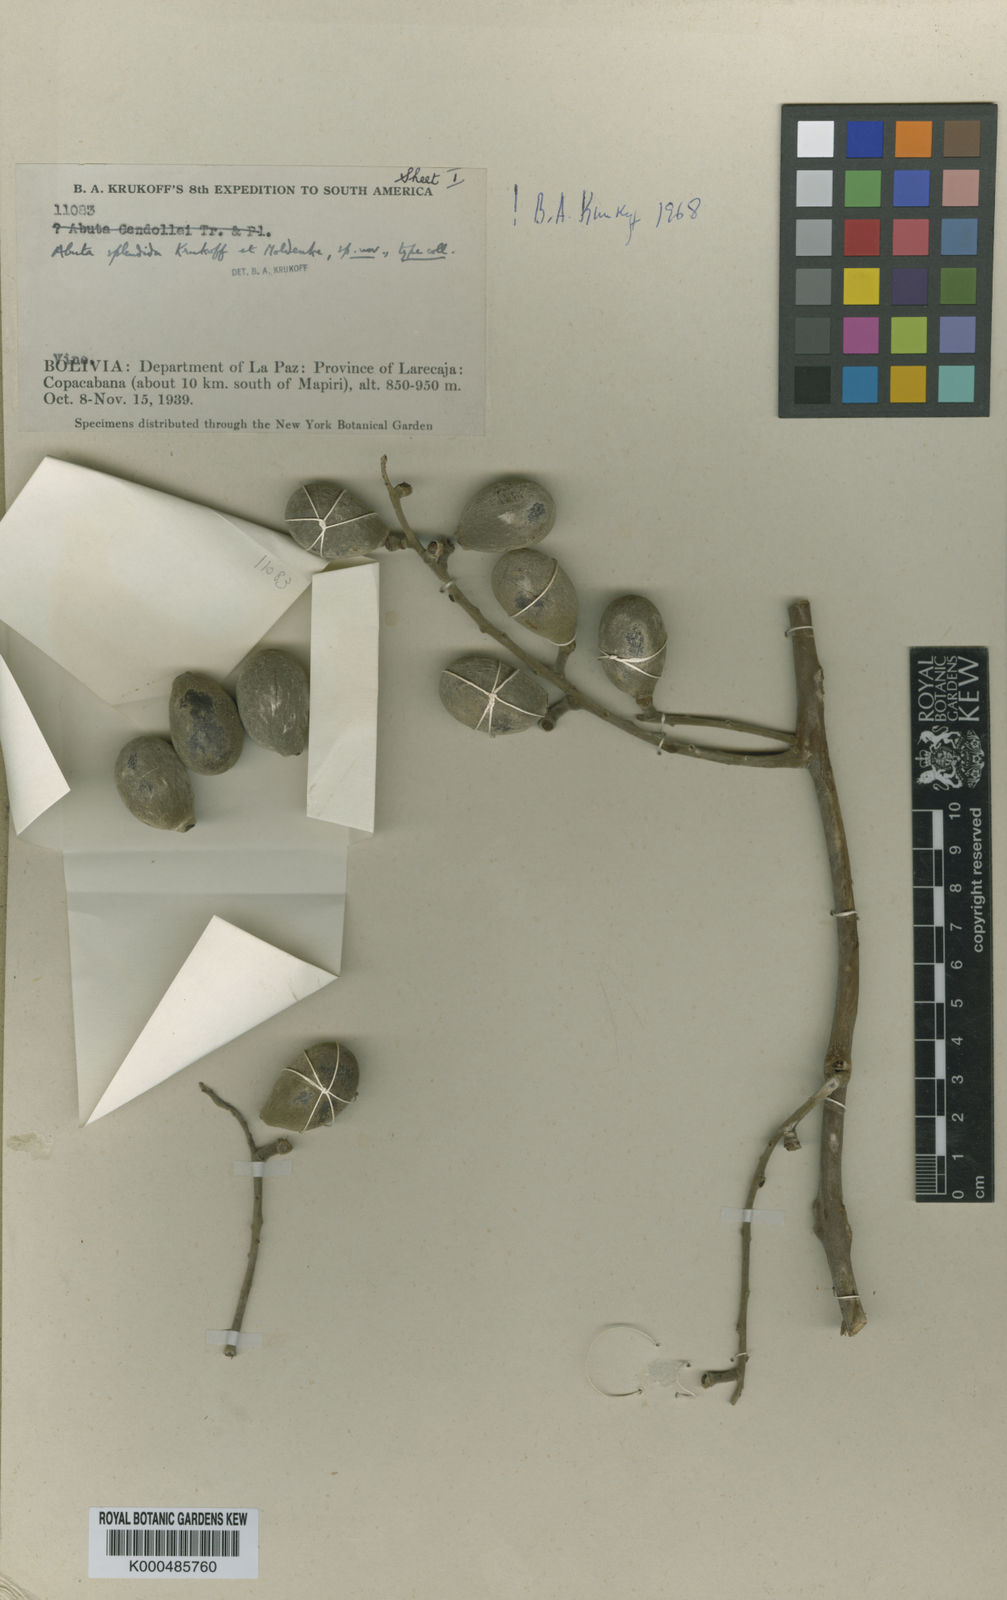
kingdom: Plantae
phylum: Tracheophyta
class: Magnoliopsida
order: Ranunculales
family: Menispermaceae
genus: Abuta
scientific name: Abuta rufescens
